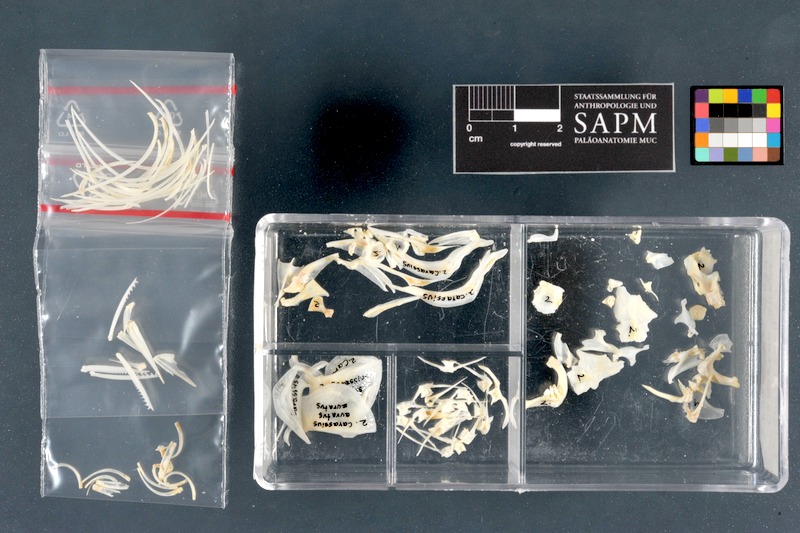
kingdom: Animalia
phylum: Chordata
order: Cypriniformes
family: Cyprinidae
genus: Carassius
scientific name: Carassius auratus
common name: Goldfish
